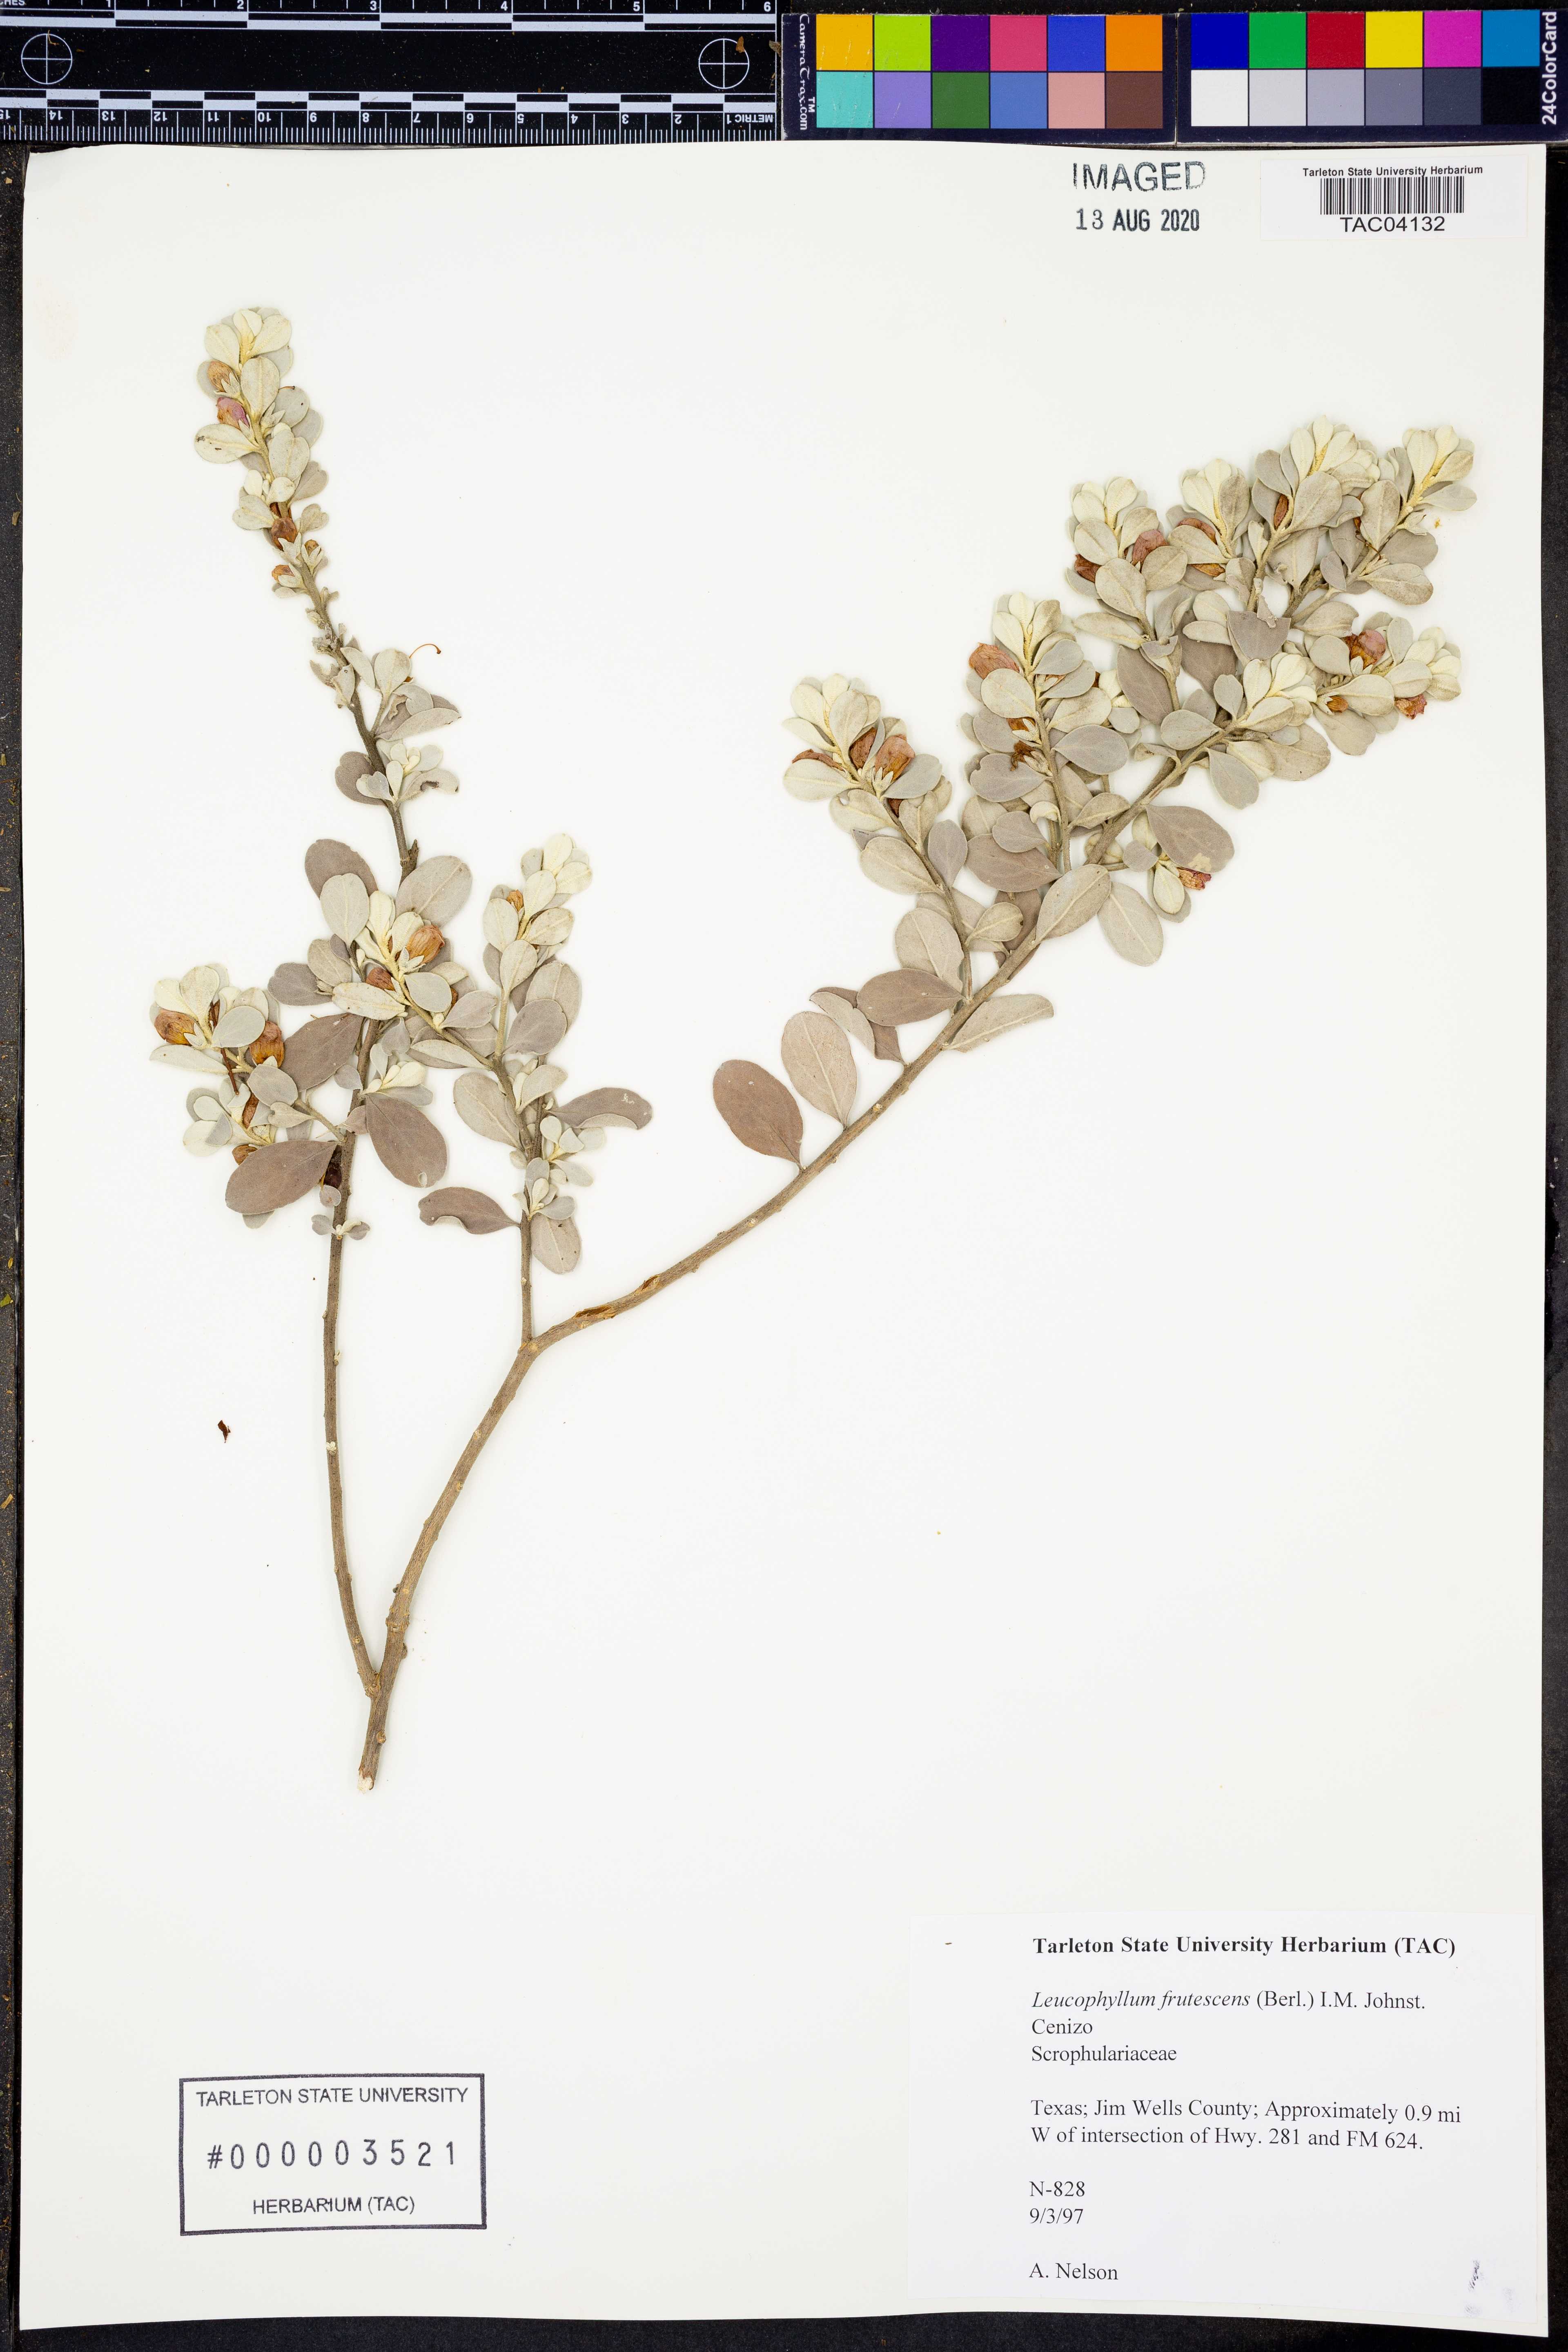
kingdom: Plantae
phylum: Tracheophyta
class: Magnoliopsida
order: Lamiales
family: Scrophulariaceae
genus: Leucophyllum
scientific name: Leucophyllum frutescens
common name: Texas silverleaf
